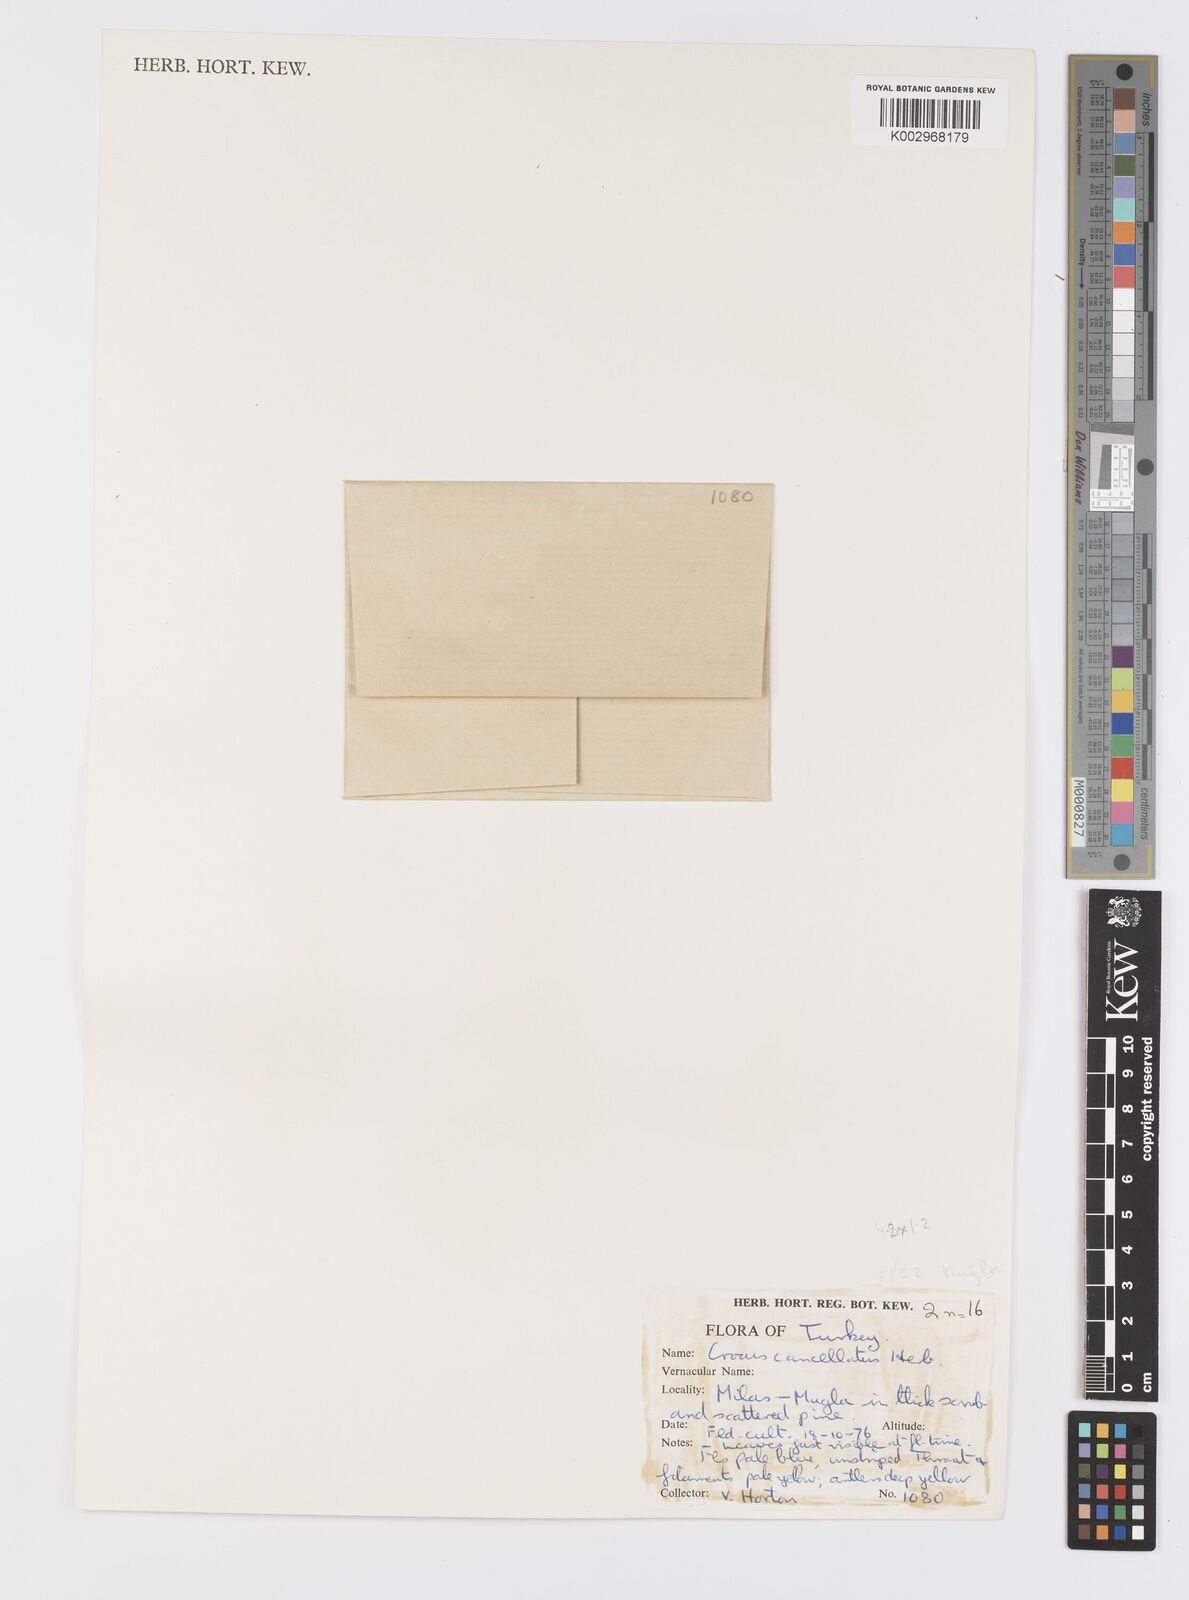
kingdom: Plantae
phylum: Tracheophyta
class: Liliopsida
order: Asparagales
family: Iridaceae
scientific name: Iridaceae
